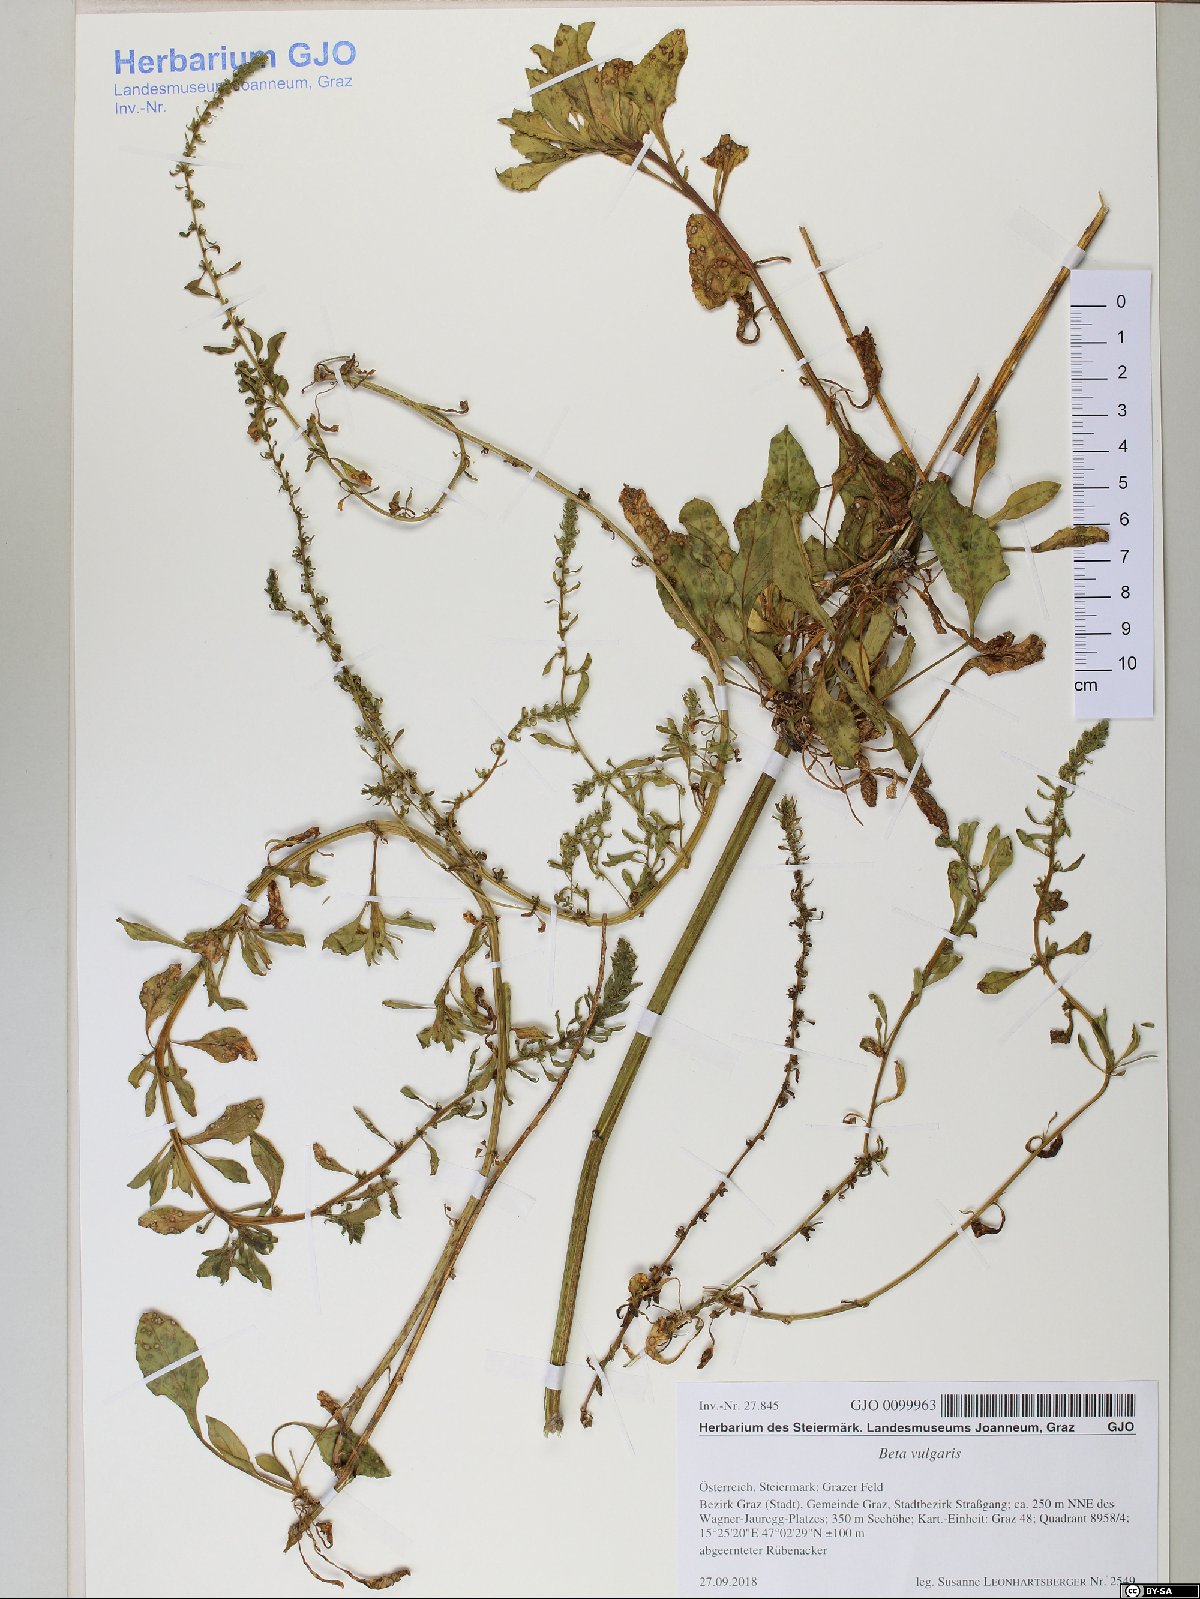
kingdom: Plantae
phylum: Tracheophyta
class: Magnoliopsida
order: Solanales
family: Solanaceae
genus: Solanum
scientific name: Solanum villosum
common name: Red nightshade
